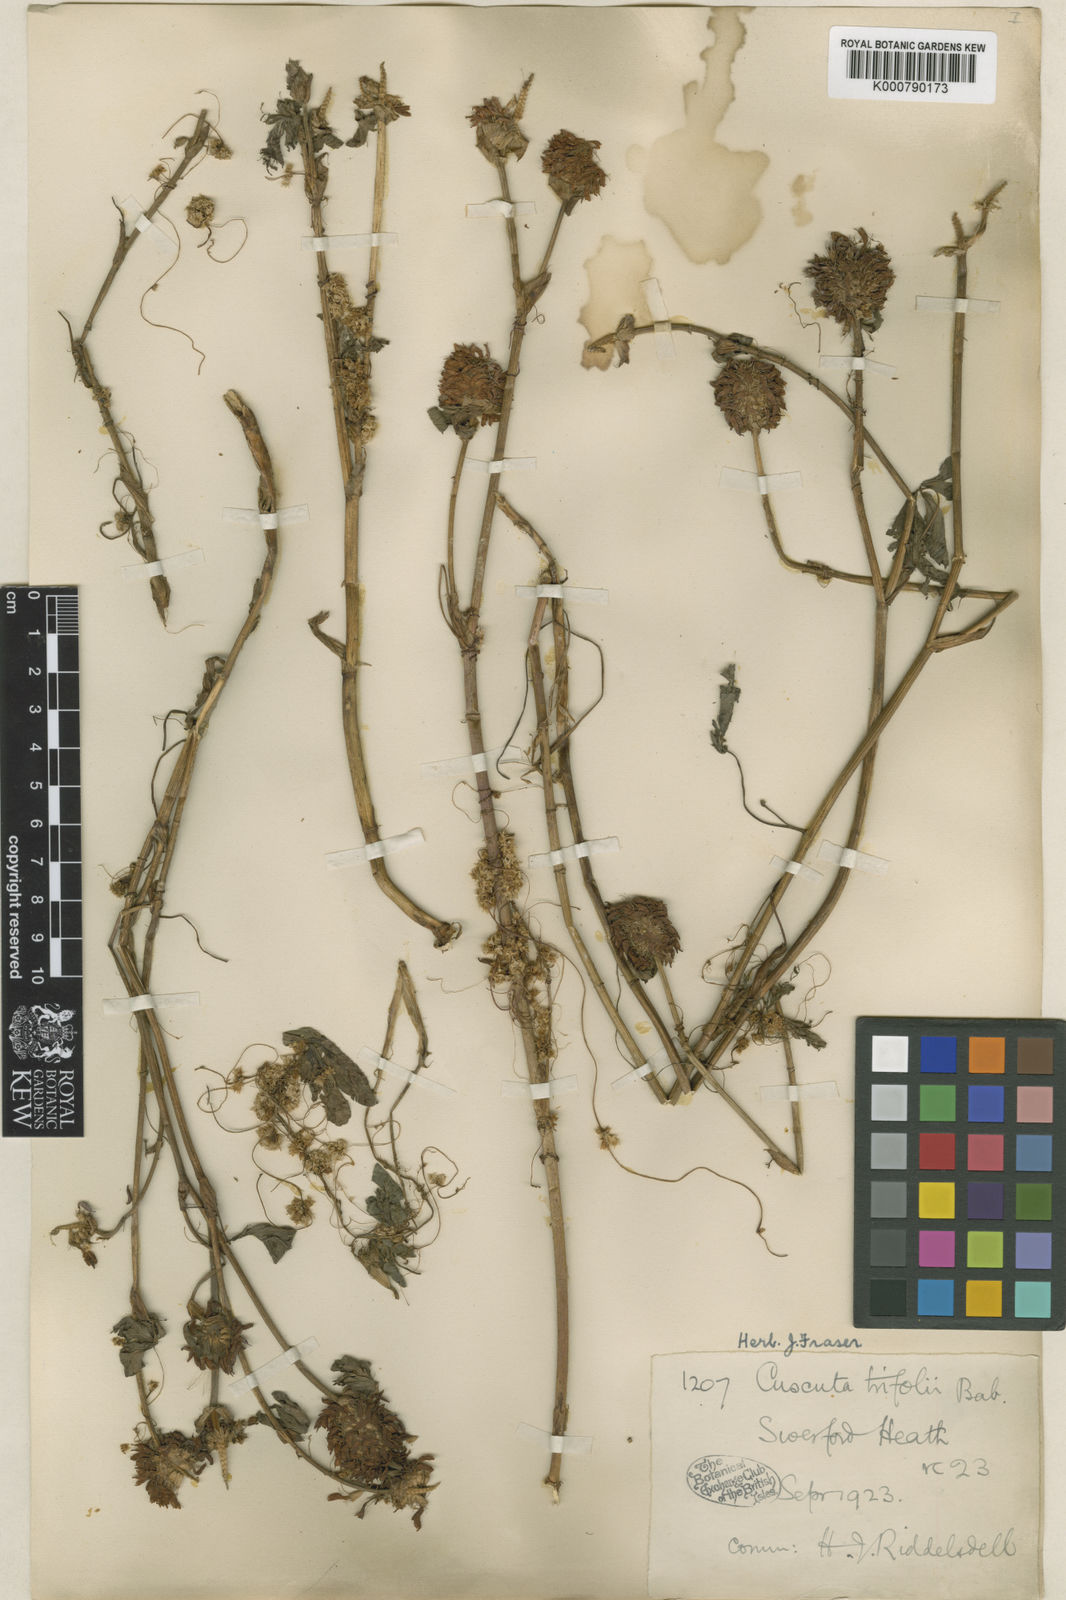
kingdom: Plantae
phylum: Tracheophyta
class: Magnoliopsida
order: Solanales
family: Convolvulaceae
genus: Cuscuta
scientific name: Cuscuta epithymum
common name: Clover dodder
